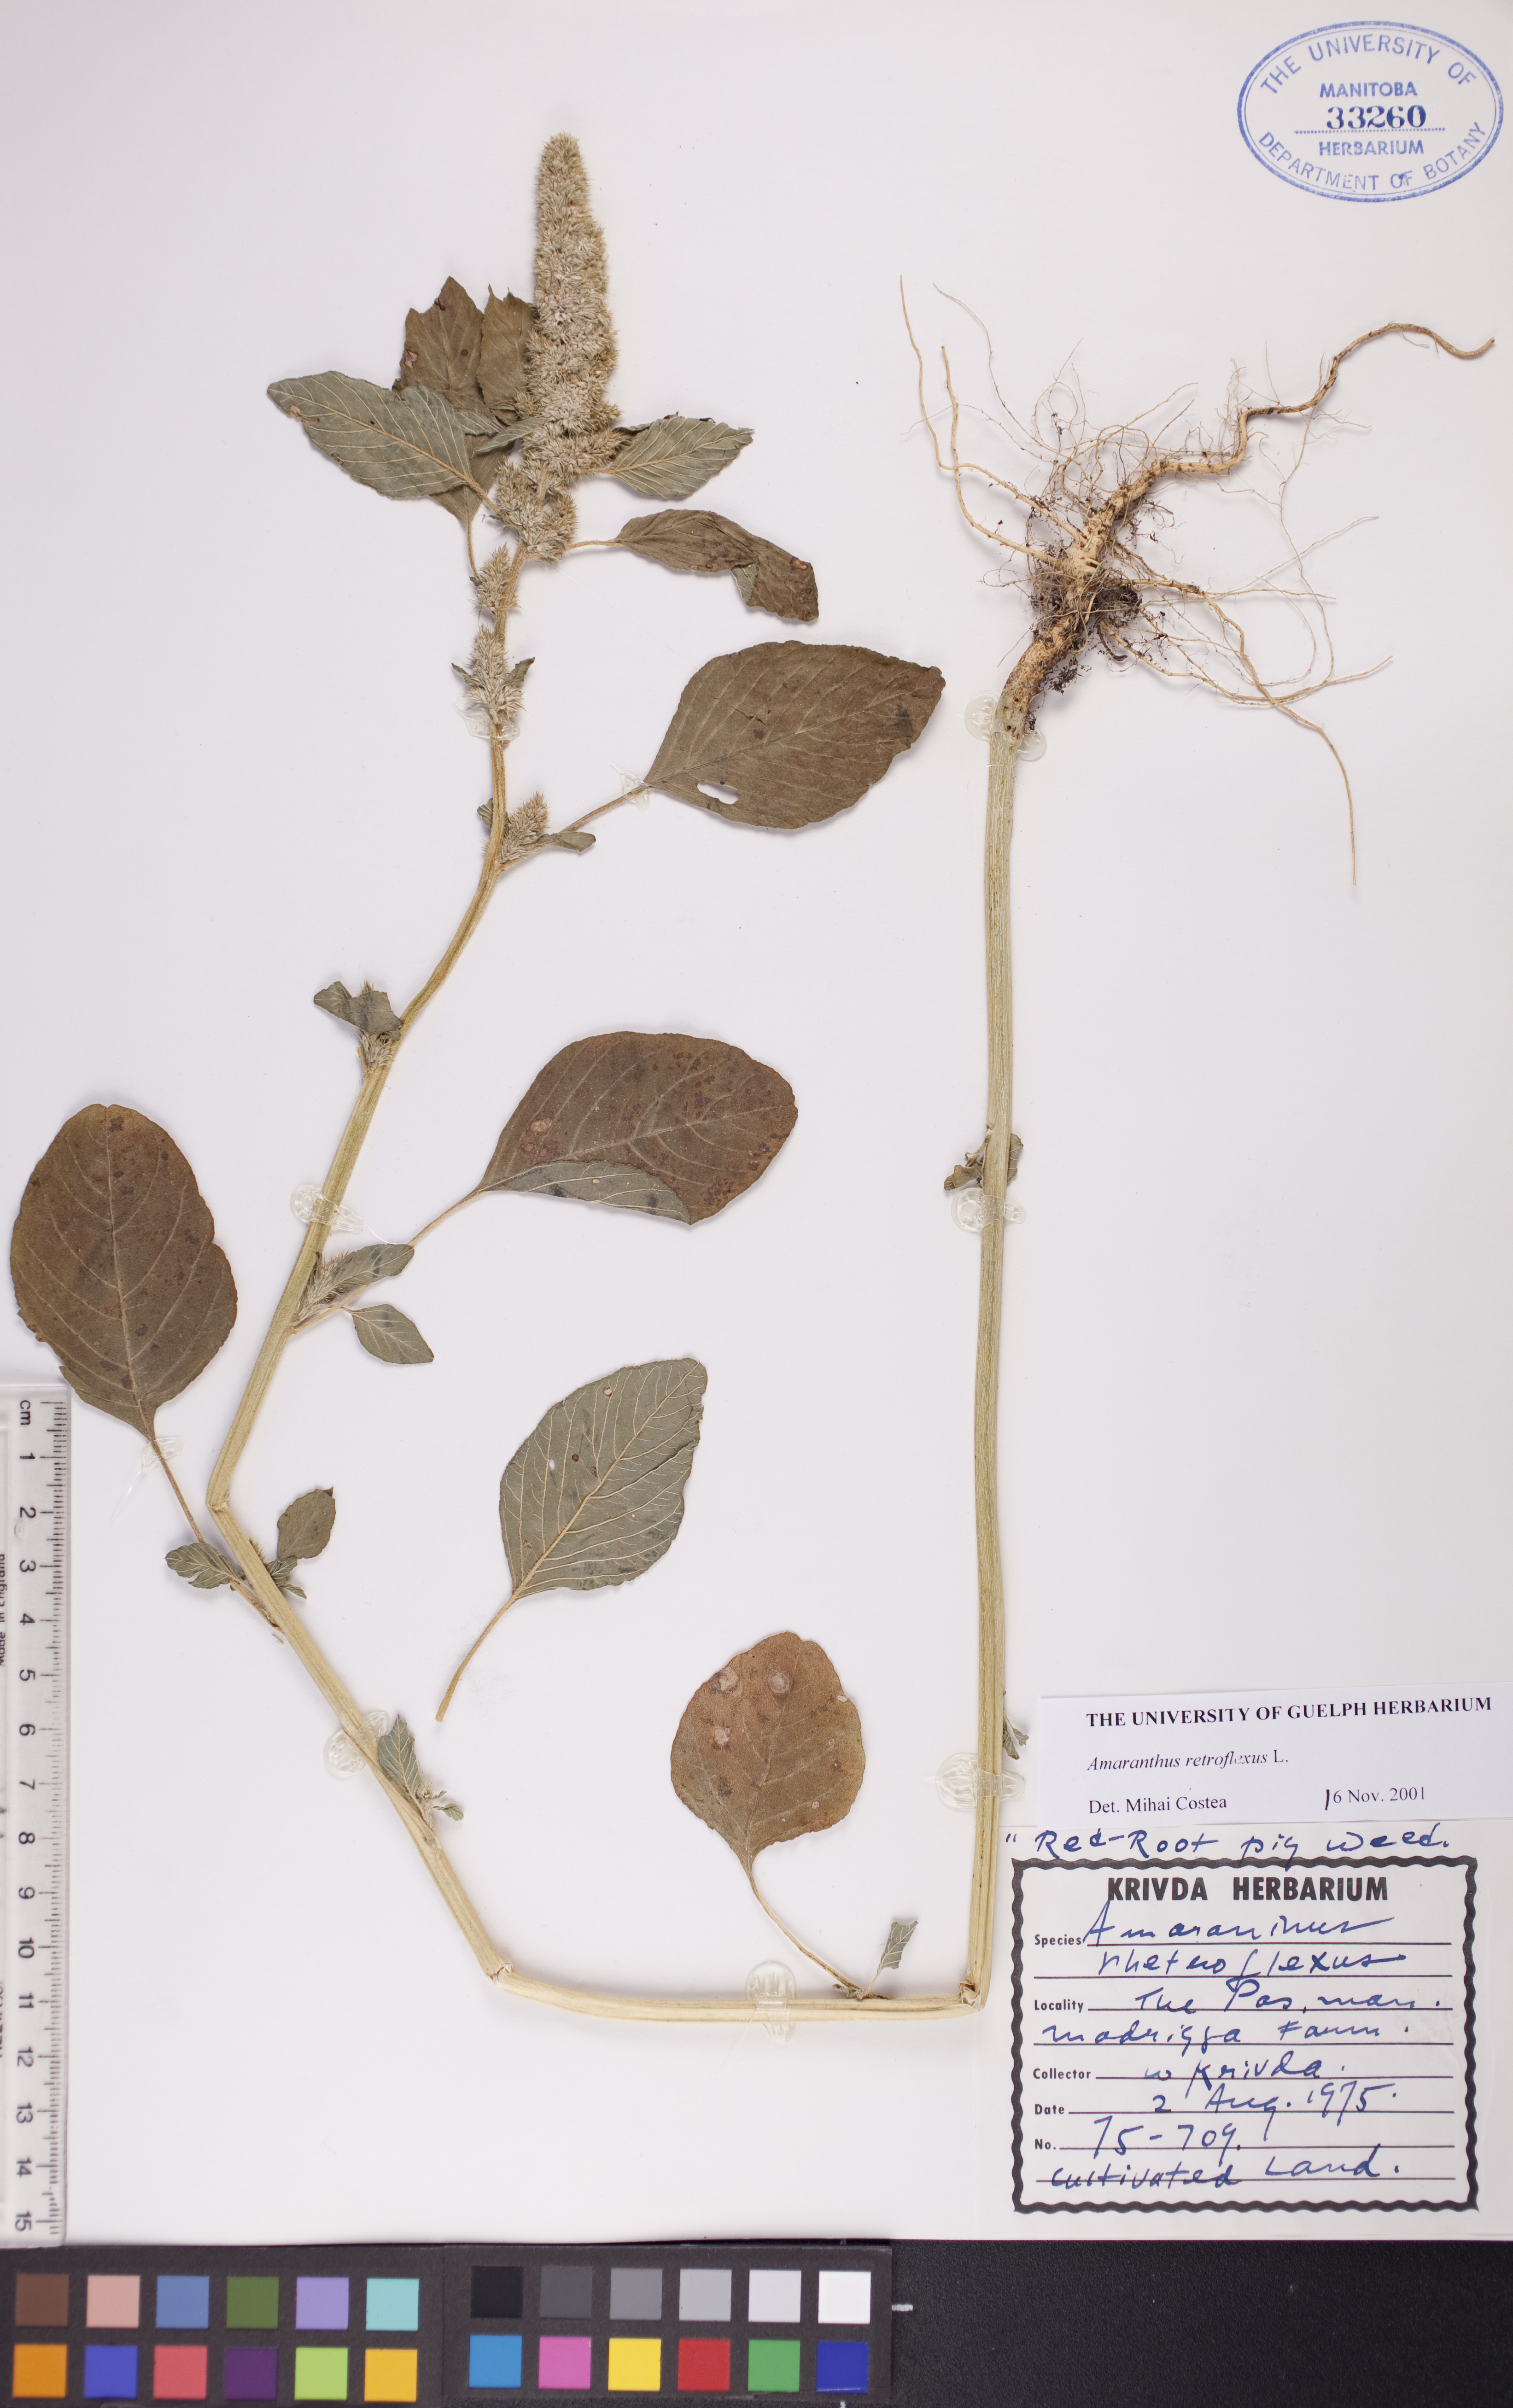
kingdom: Plantae
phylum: Tracheophyta
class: Magnoliopsida
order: Caryophyllales
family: Amaranthaceae
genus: Amaranthus
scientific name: Amaranthus retroflexus
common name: Redroot amaranth
